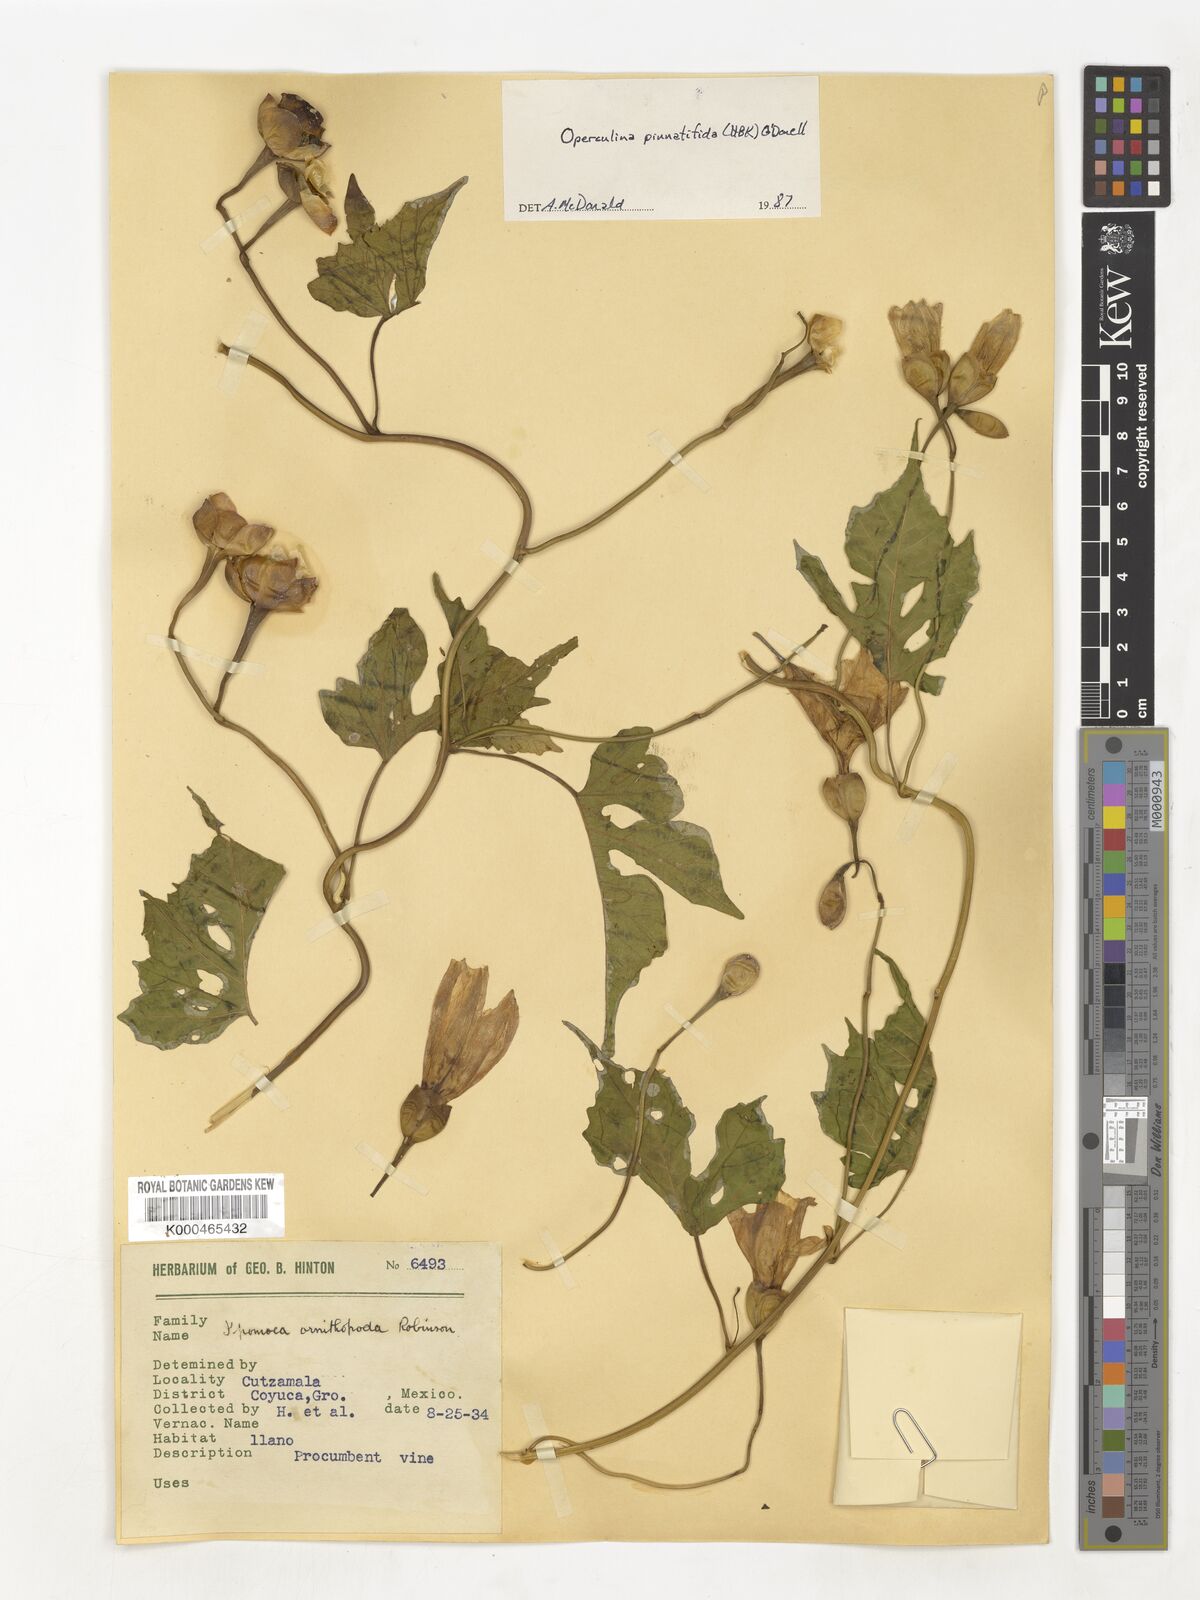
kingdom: Plantae
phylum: Tracheophyta
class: Magnoliopsida
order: Solanales
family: Convolvulaceae
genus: Operculina
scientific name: Operculina
